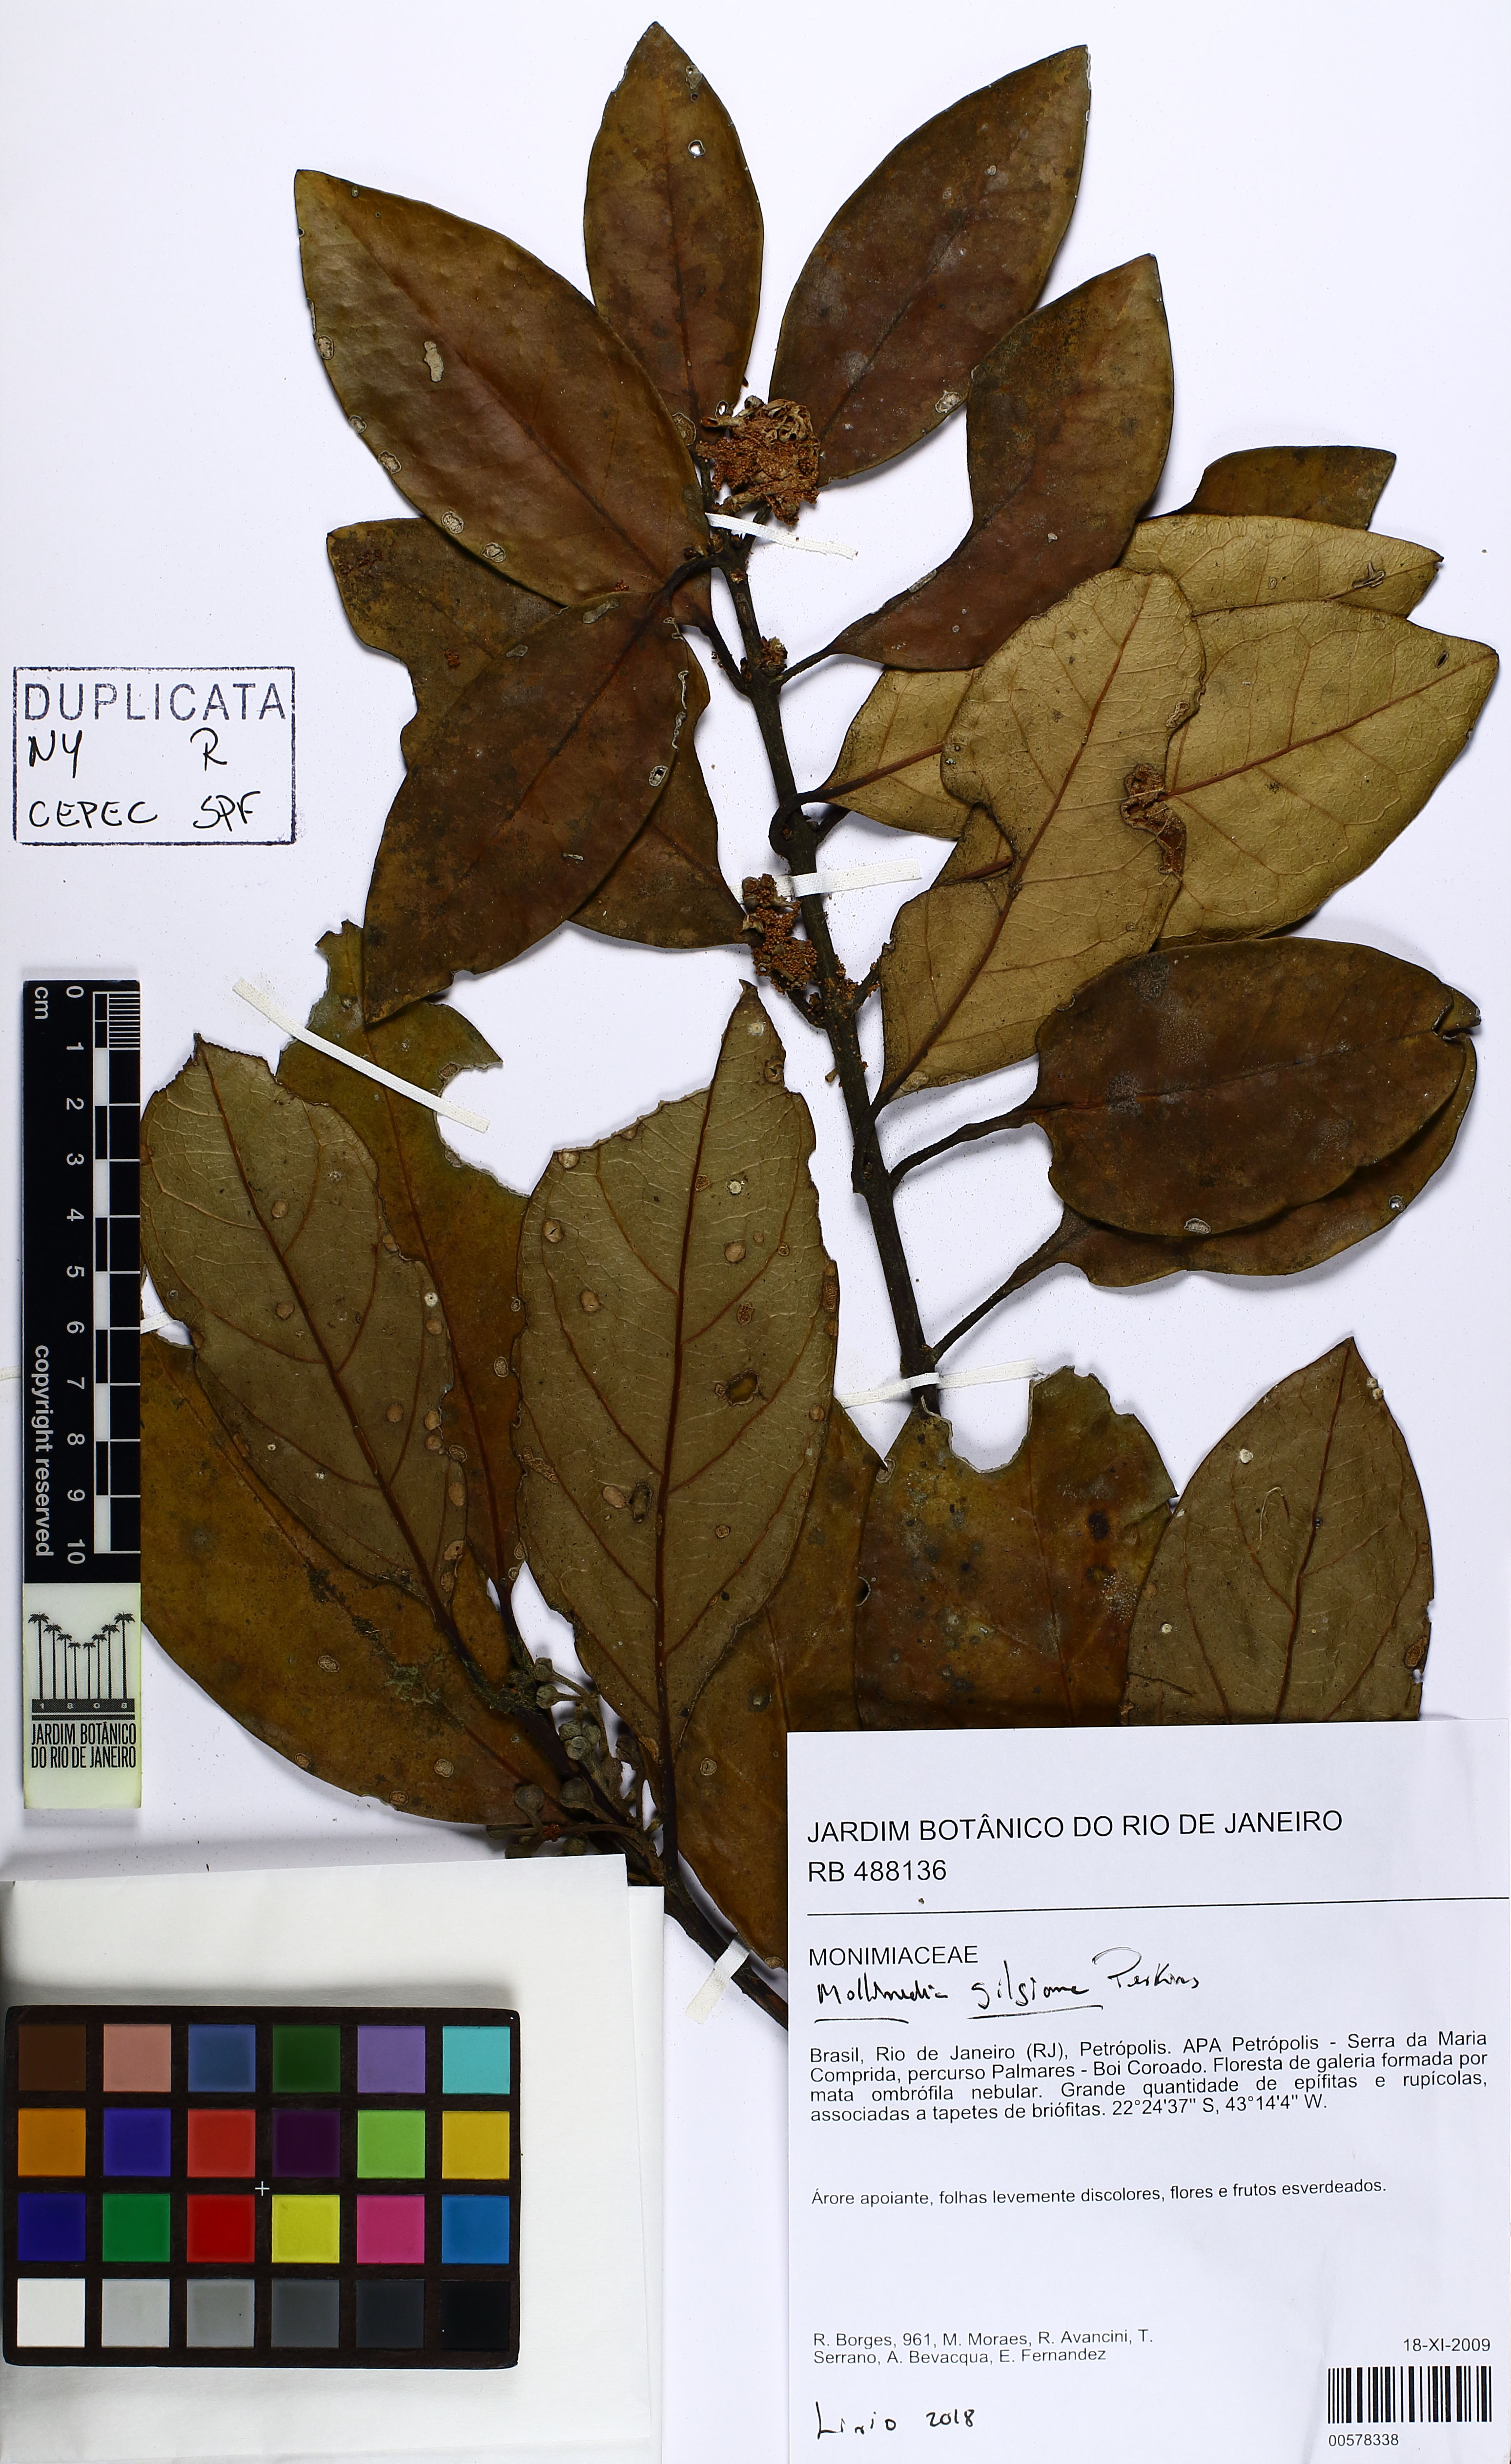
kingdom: Plantae
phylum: Tracheophyta
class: Magnoliopsida
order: Laurales
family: Monimiaceae
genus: Mollinedia
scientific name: Mollinedia gilgiana
